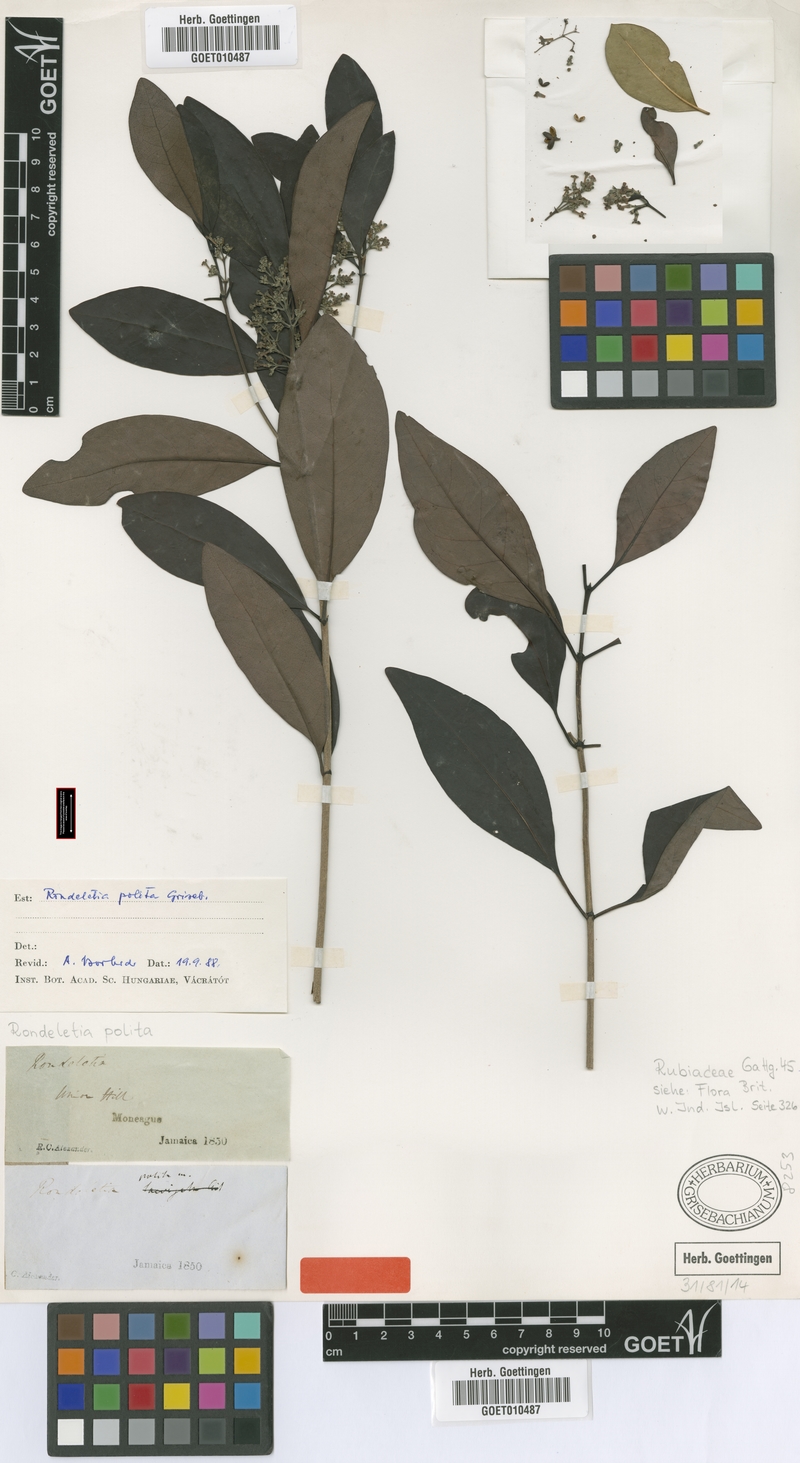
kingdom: Plantae
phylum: Tracheophyta
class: Magnoliopsida
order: Gentianales
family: Rubiaceae
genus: Rondeletia
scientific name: Rondeletia polita
